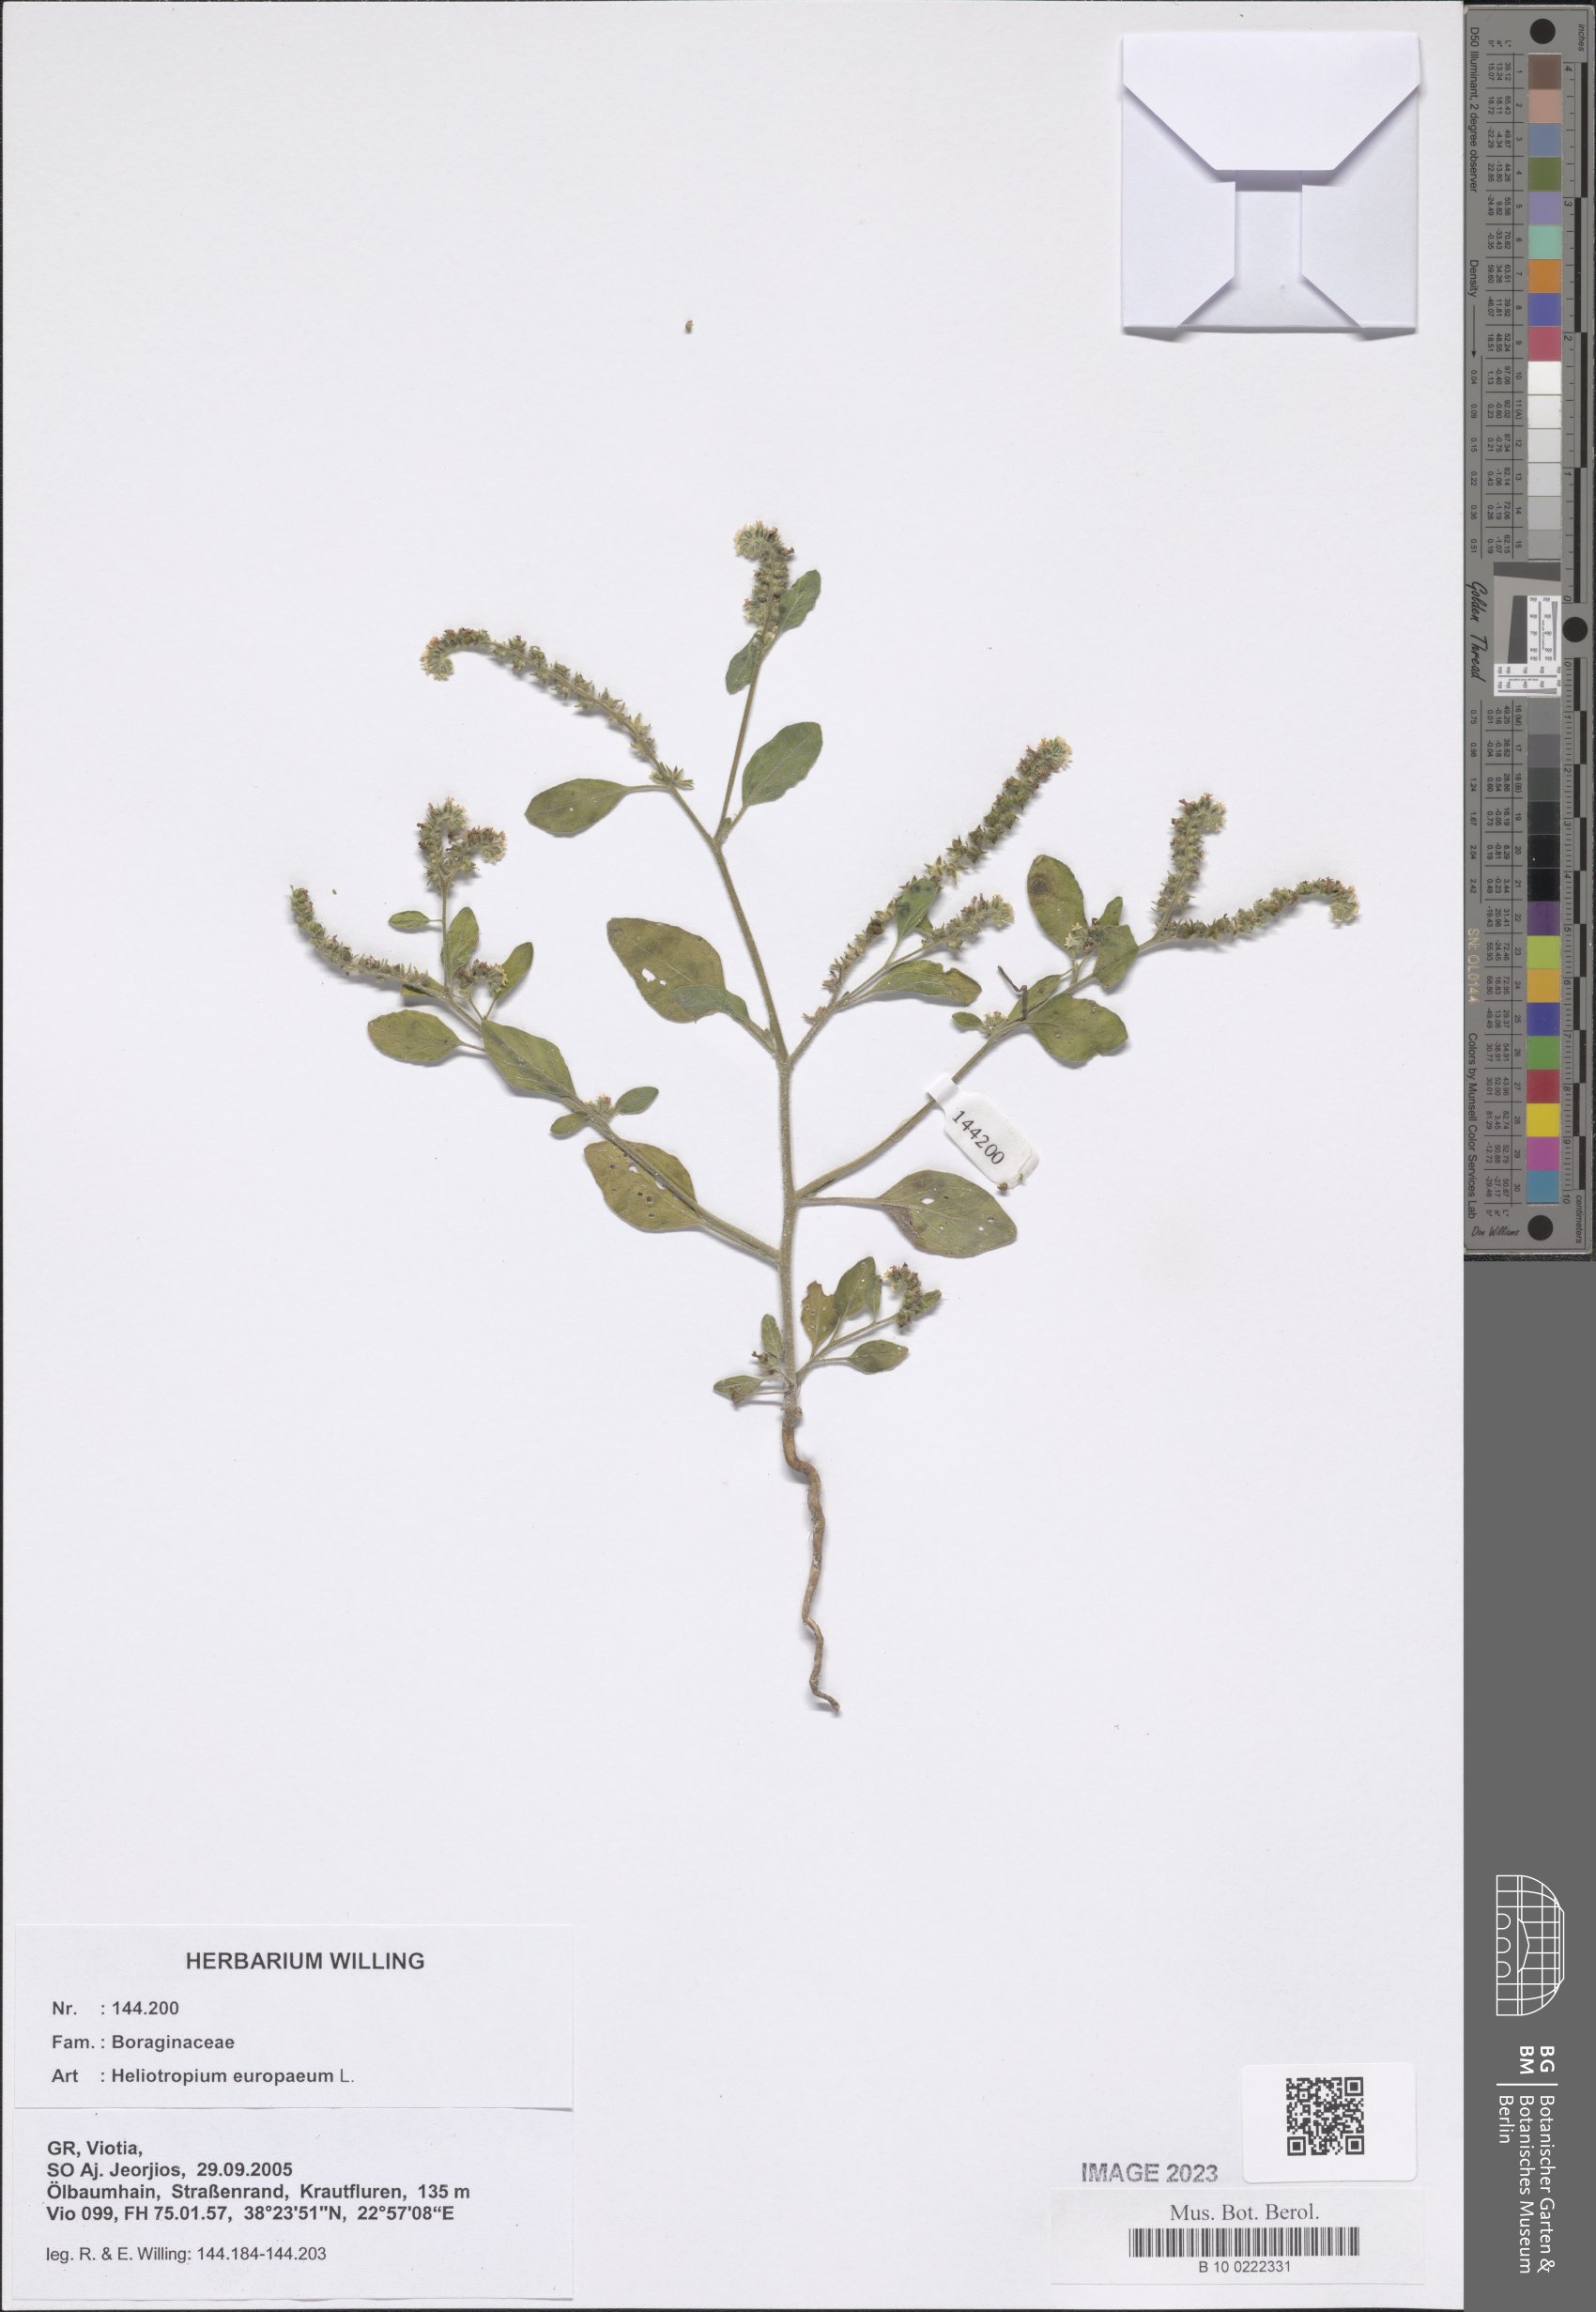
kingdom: Plantae
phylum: Tracheophyta
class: Magnoliopsida
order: Boraginales
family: Heliotropiaceae
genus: Heliotropium
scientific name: Heliotropium europaeum
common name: European heliotrope
